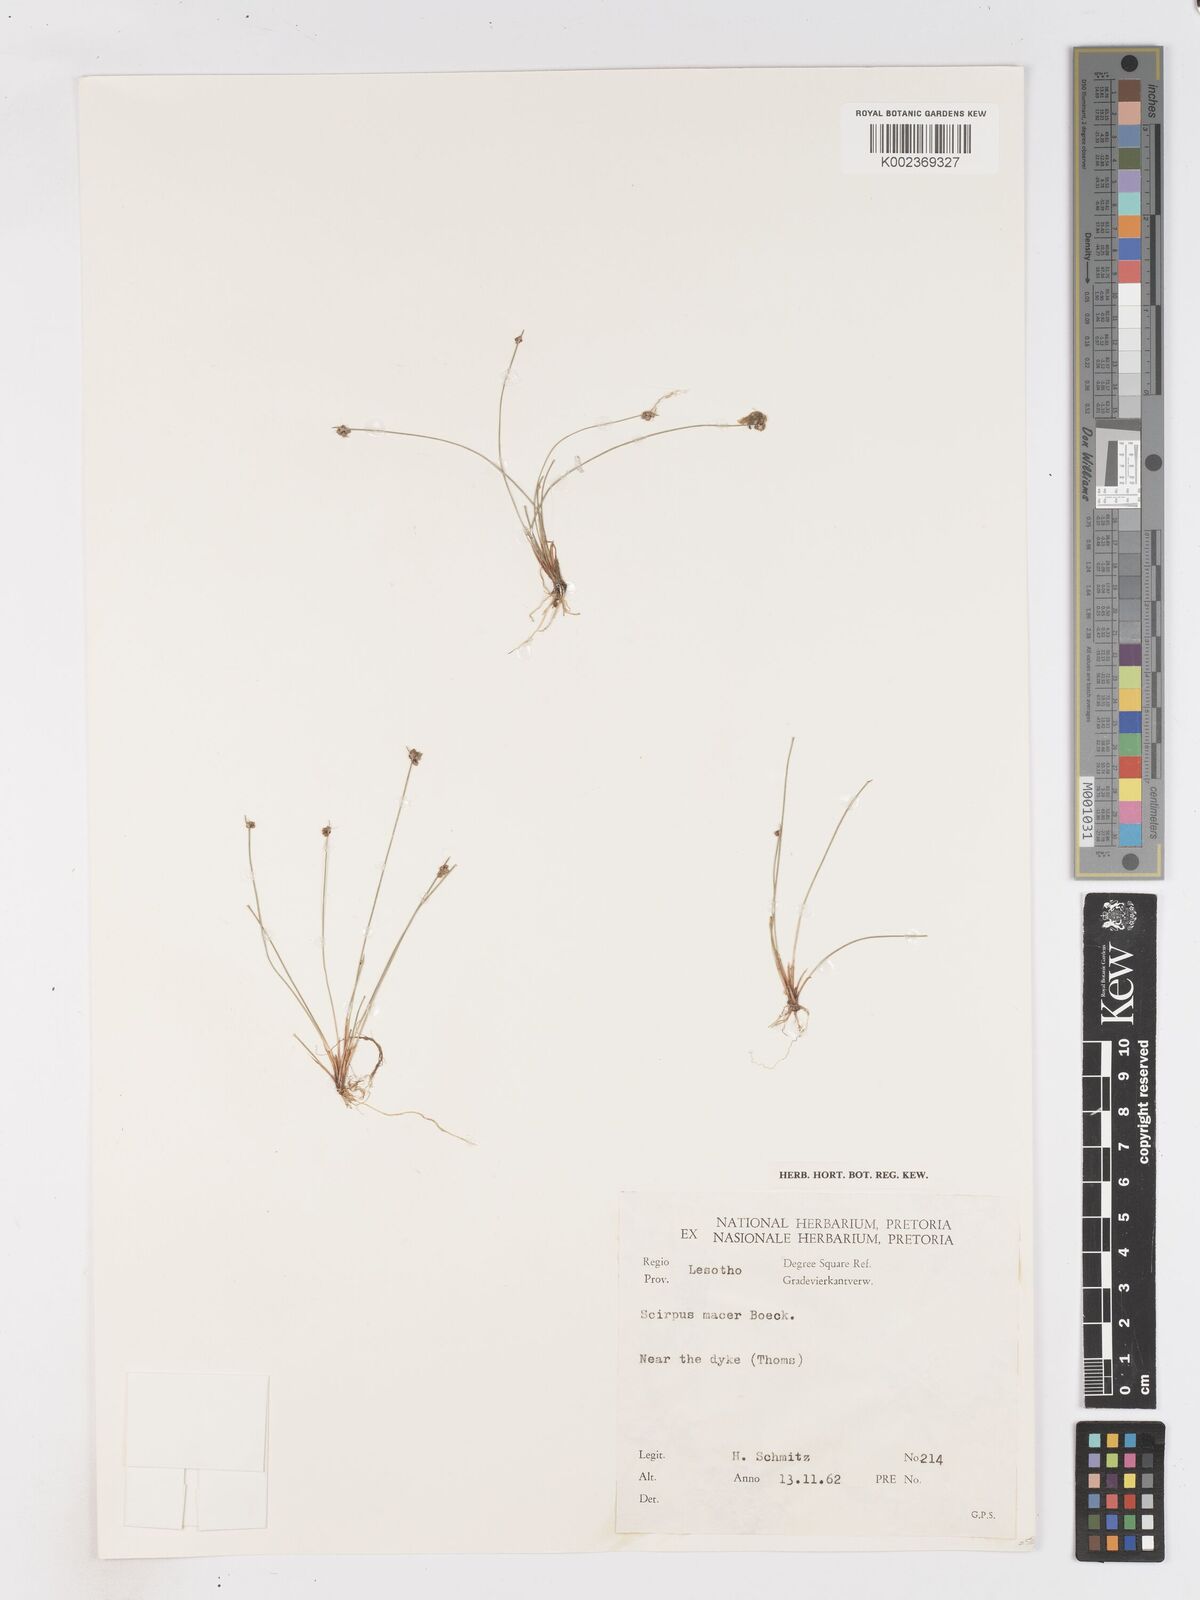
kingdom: Plantae
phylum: Tracheophyta
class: Liliopsida
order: Poales
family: Cyperaceae
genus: Isolepis
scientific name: Isolepis costata
